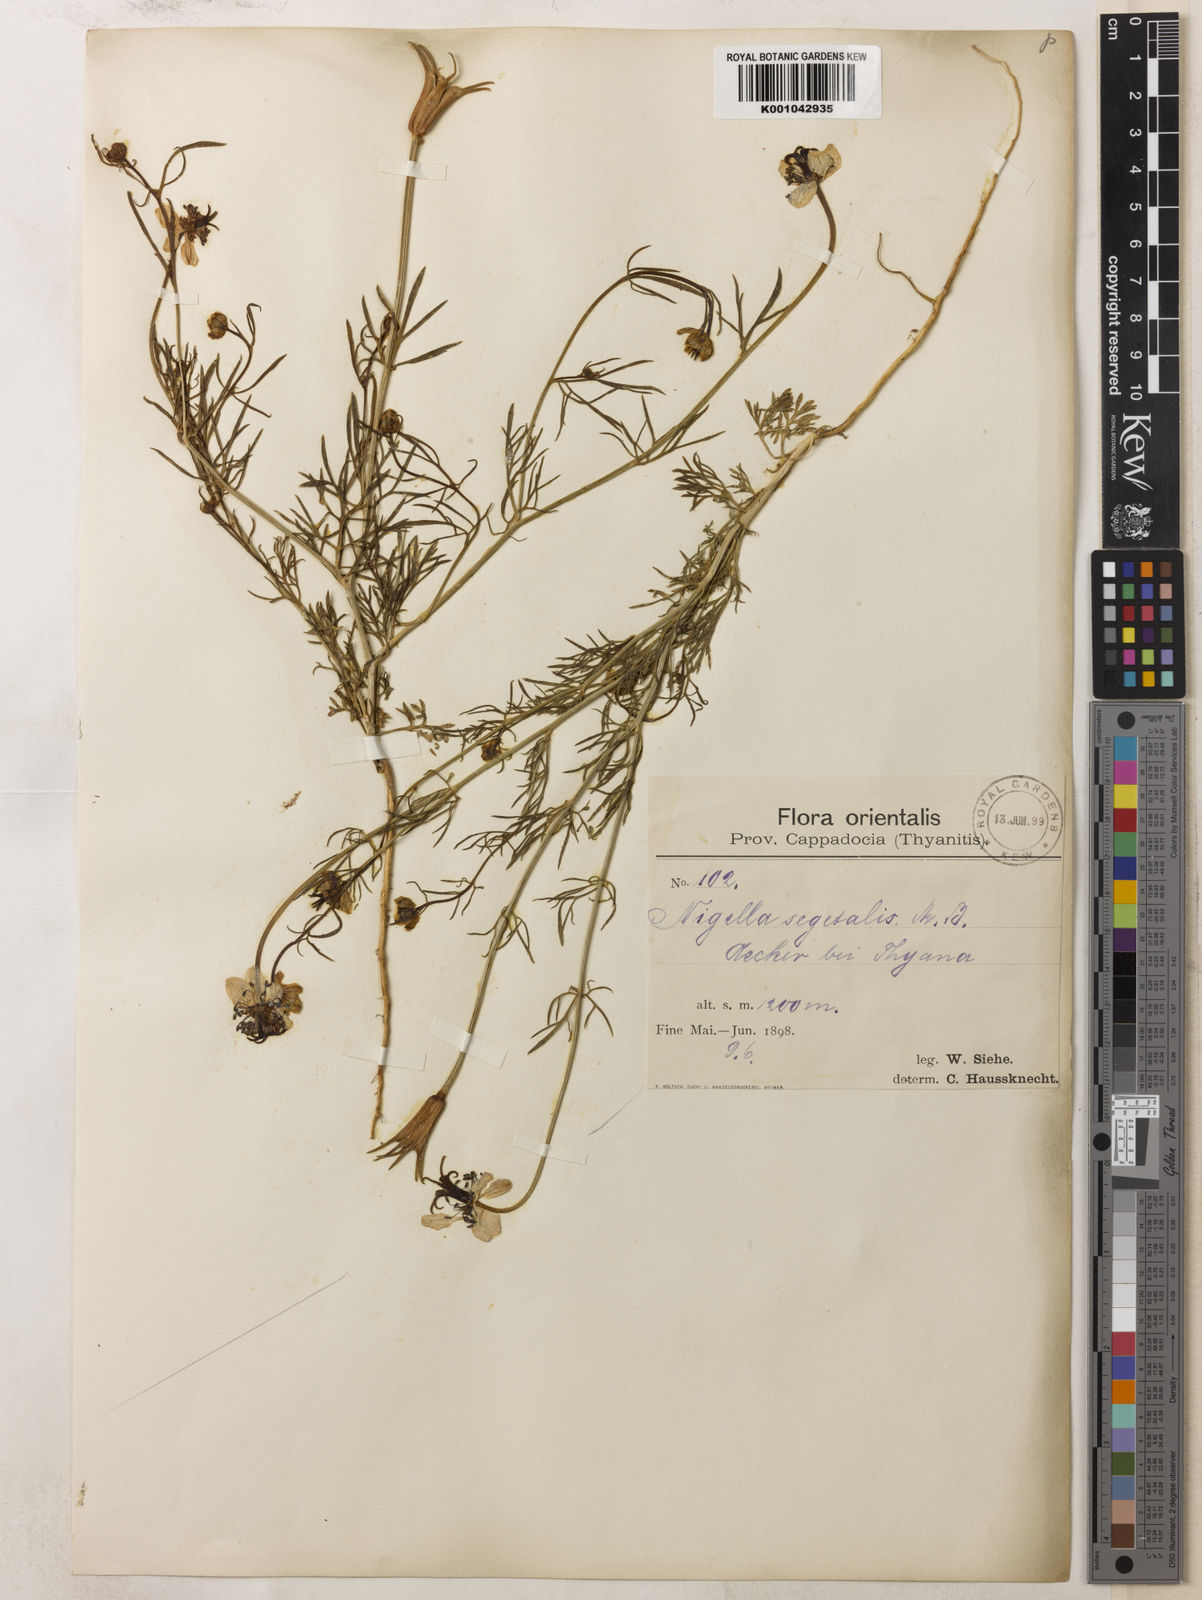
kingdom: Plantae
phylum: Tracheophyta
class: Magnoliopsida
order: Ranunculales
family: Ranunculaceae
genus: Nigella
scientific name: Nigella segetalis
